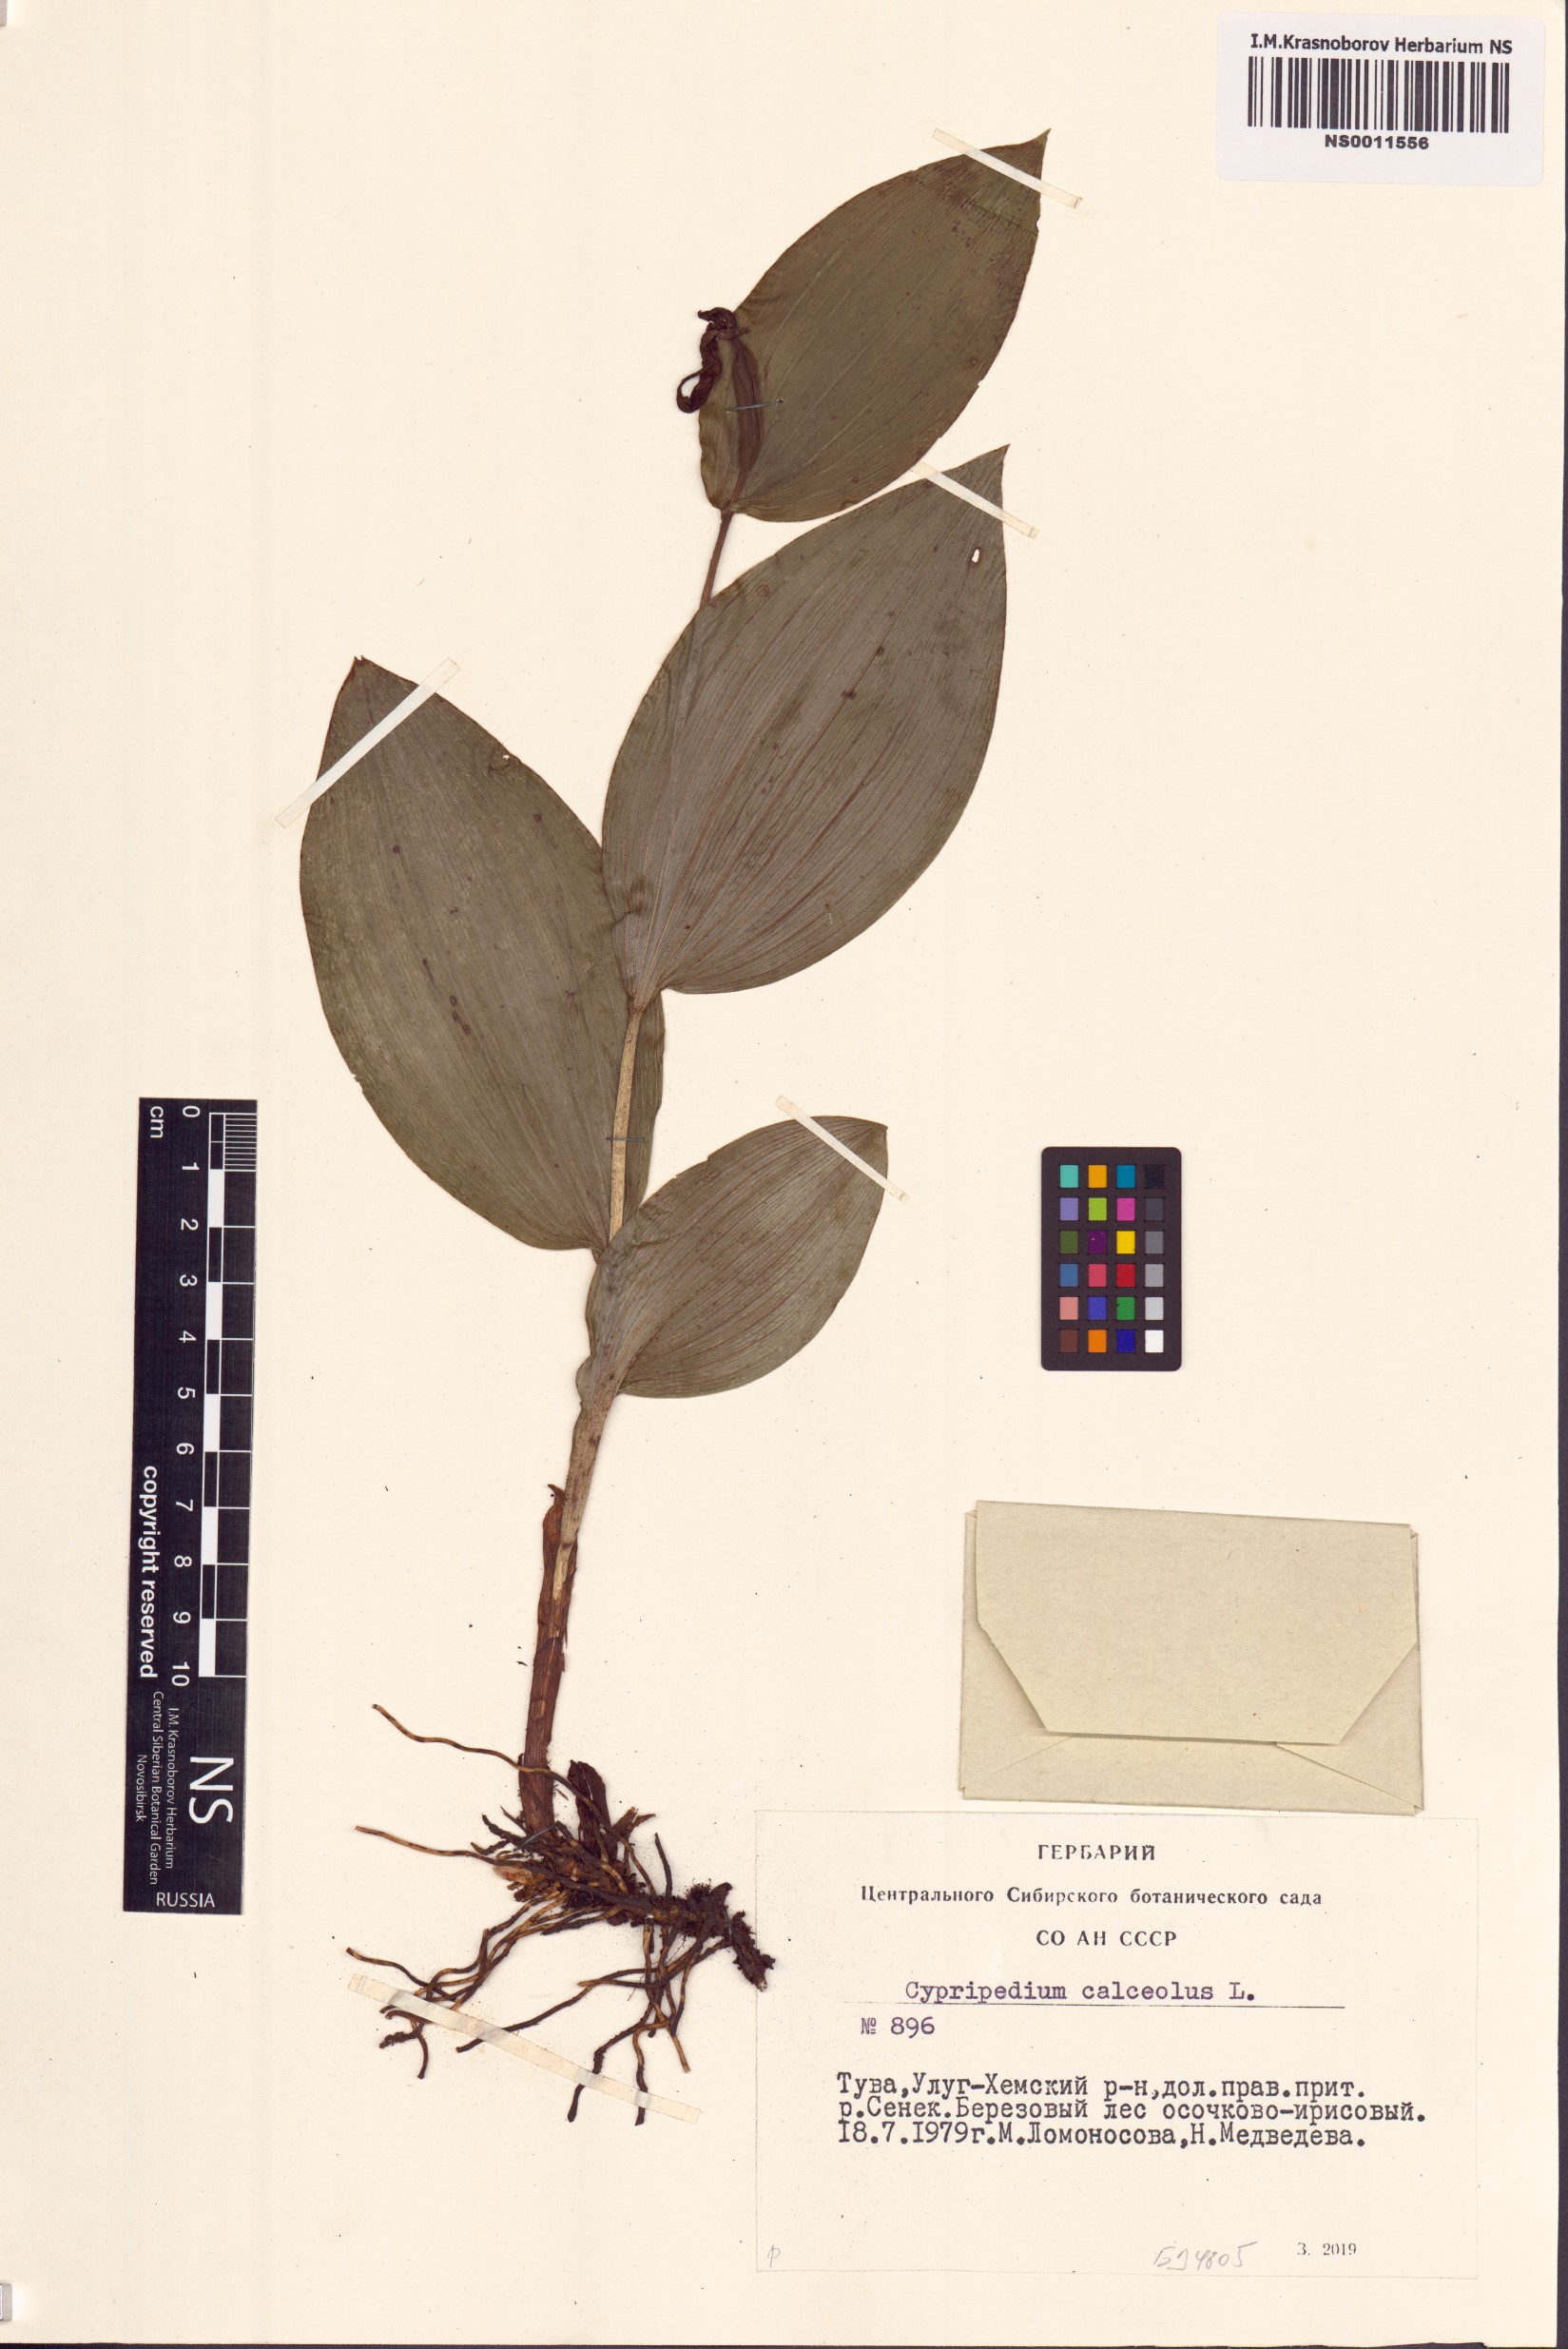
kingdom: Plantae
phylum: Tracheophyta
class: Liliopsida
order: Asparagales
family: Orchidaceae
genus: Cypripedium
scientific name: Cypripedium calceolus
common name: Lady's-slipper
